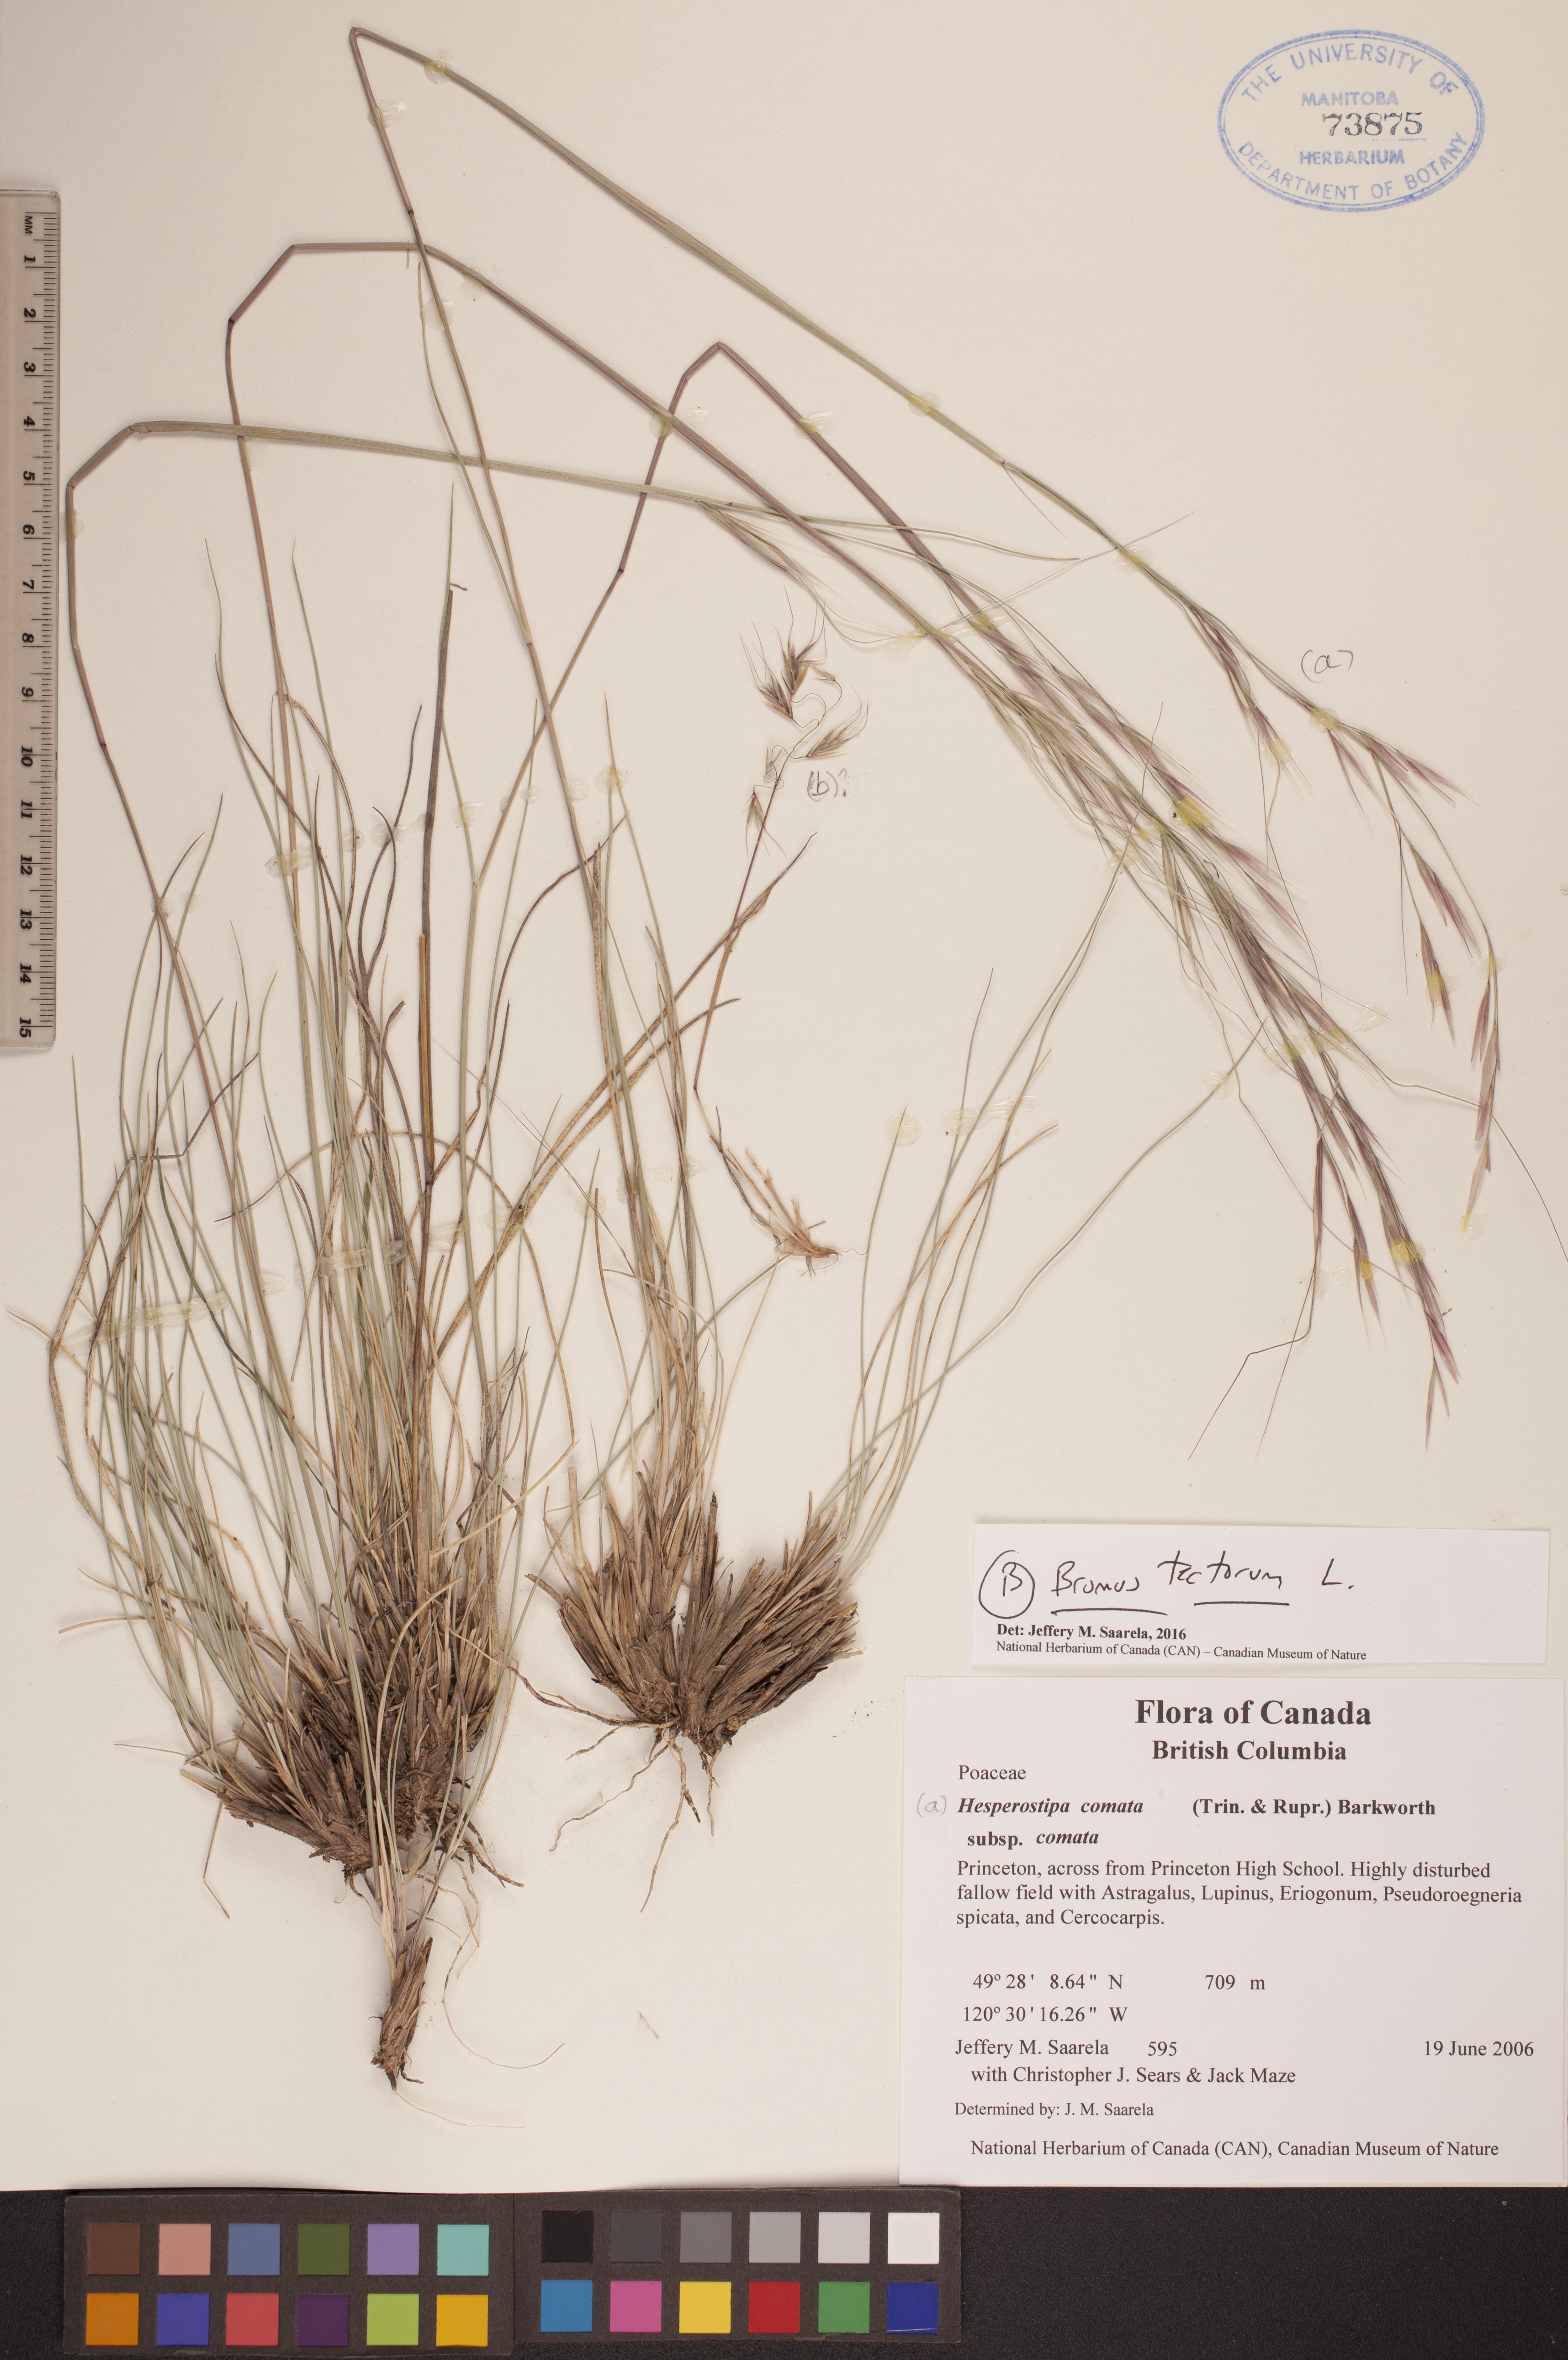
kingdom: Plantae
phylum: Tracheophyta
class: Liliopsida
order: Poales
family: Poaceae
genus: Bromus
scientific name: Bromus tectorum
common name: Cheatgrass
